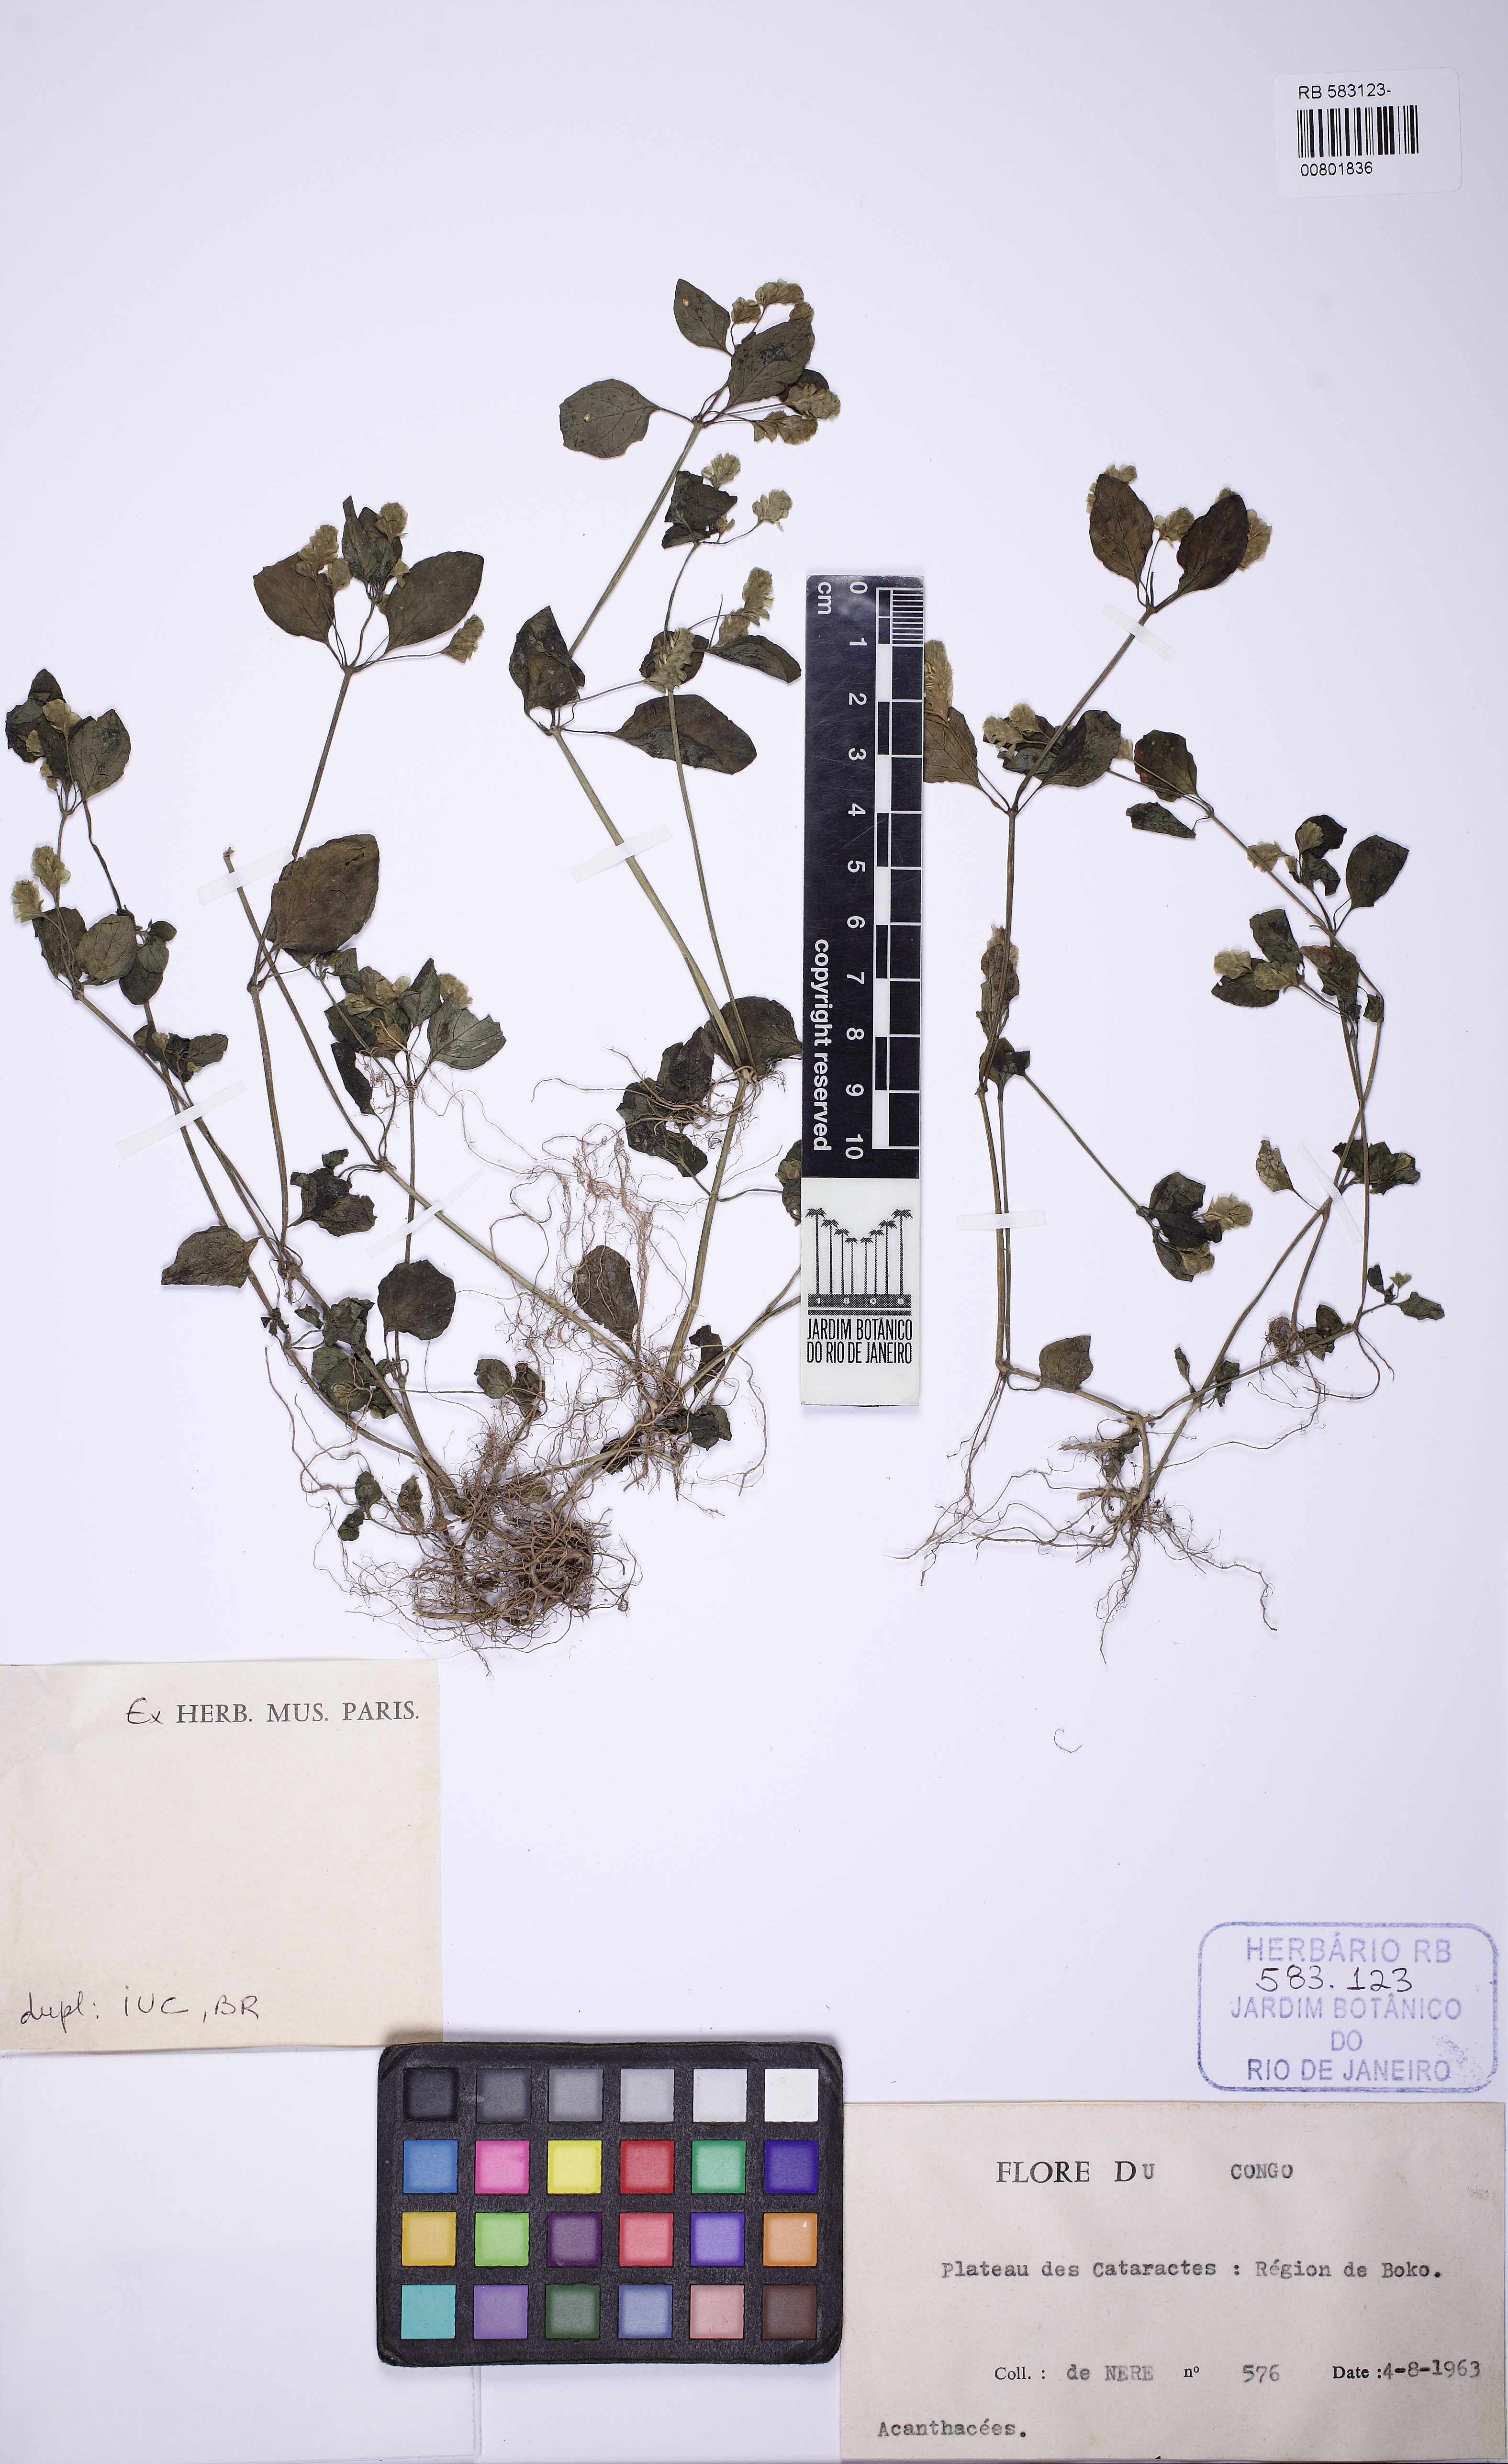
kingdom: Plantae
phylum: Tracheophyta
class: Magnoliopsida
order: Lamiales
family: Acanthaceae
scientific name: Acanthaceae
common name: Acanthaceae
